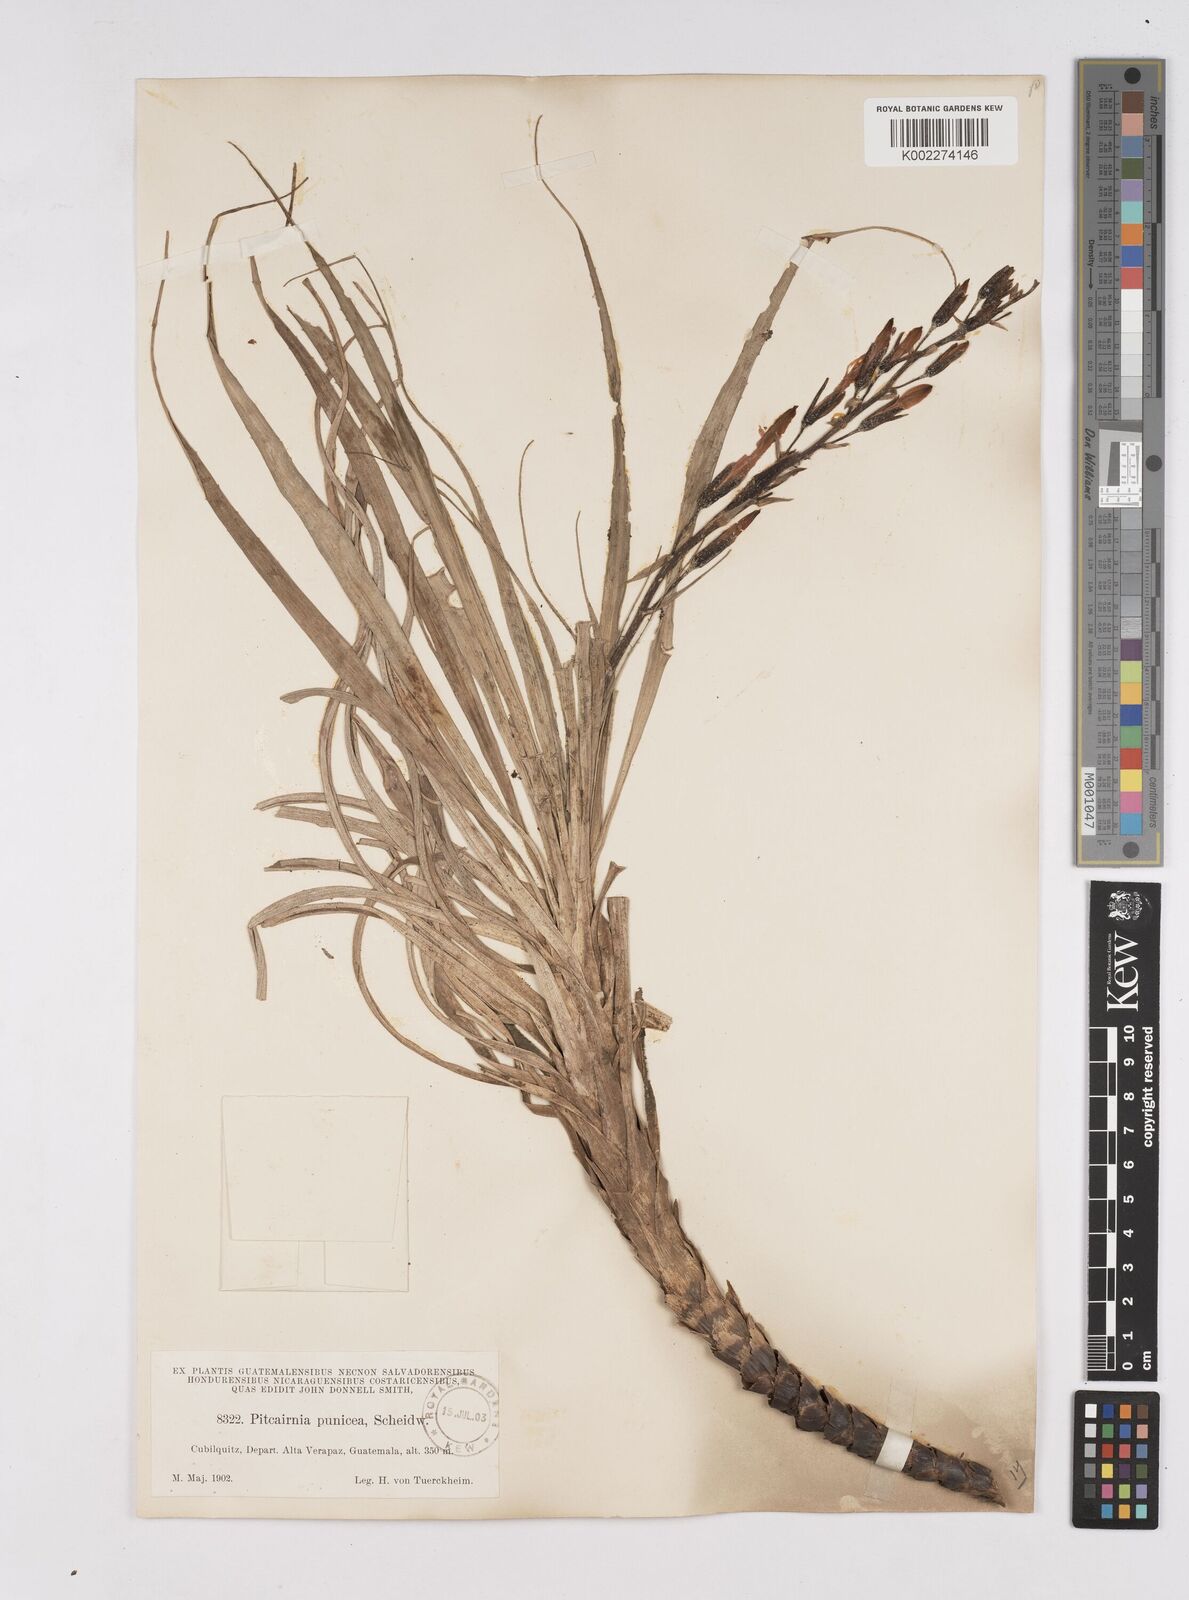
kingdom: Plantae
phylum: Tracheophyta
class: Liliopsida
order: Poales
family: Bromeliaceae
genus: Pitcairnia
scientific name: Pitcairnia punicea
